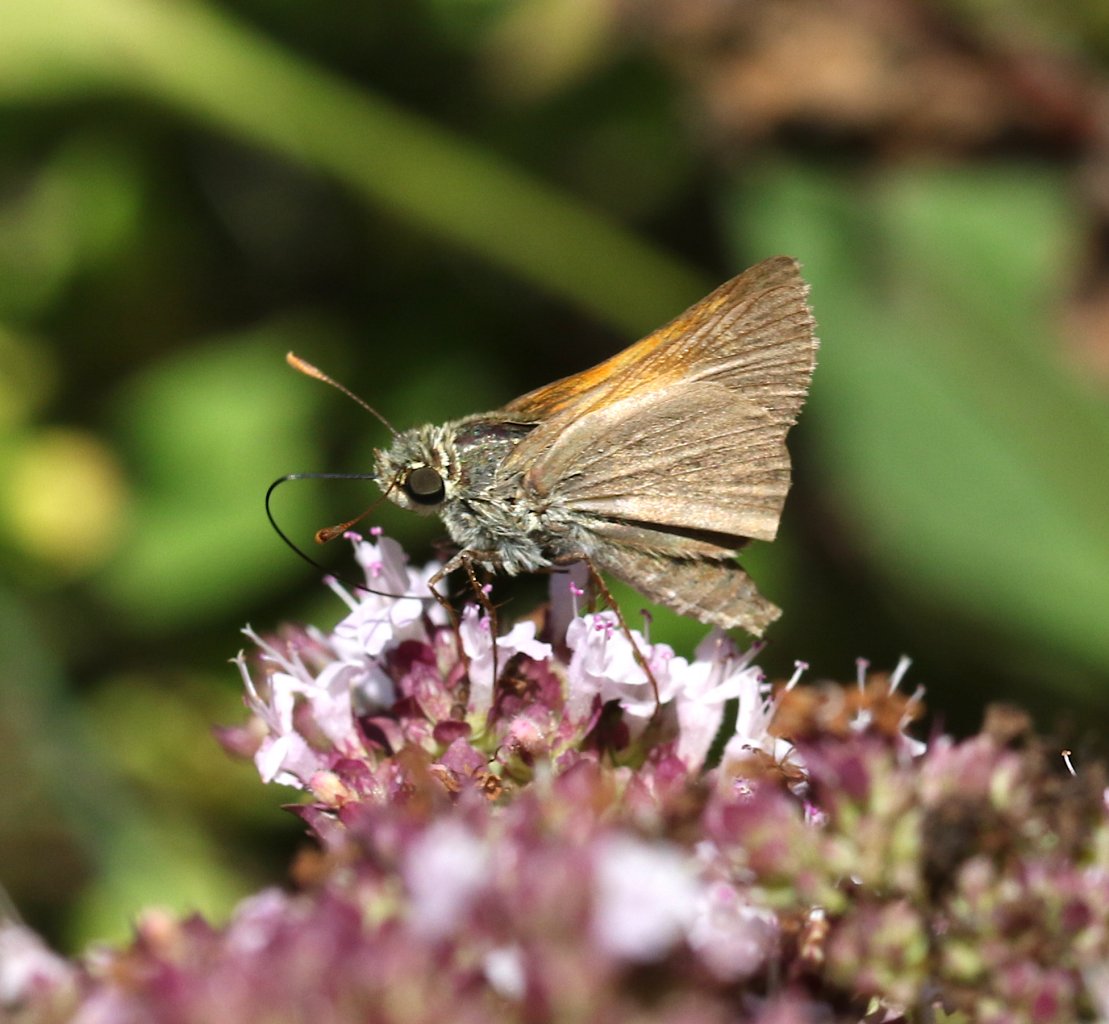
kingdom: Animalia
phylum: Arthropoda
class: Insecta
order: Lepidoptera
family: Hesperiidae
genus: Polites
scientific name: Polites themistocles
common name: Tawny-edged Skipper
